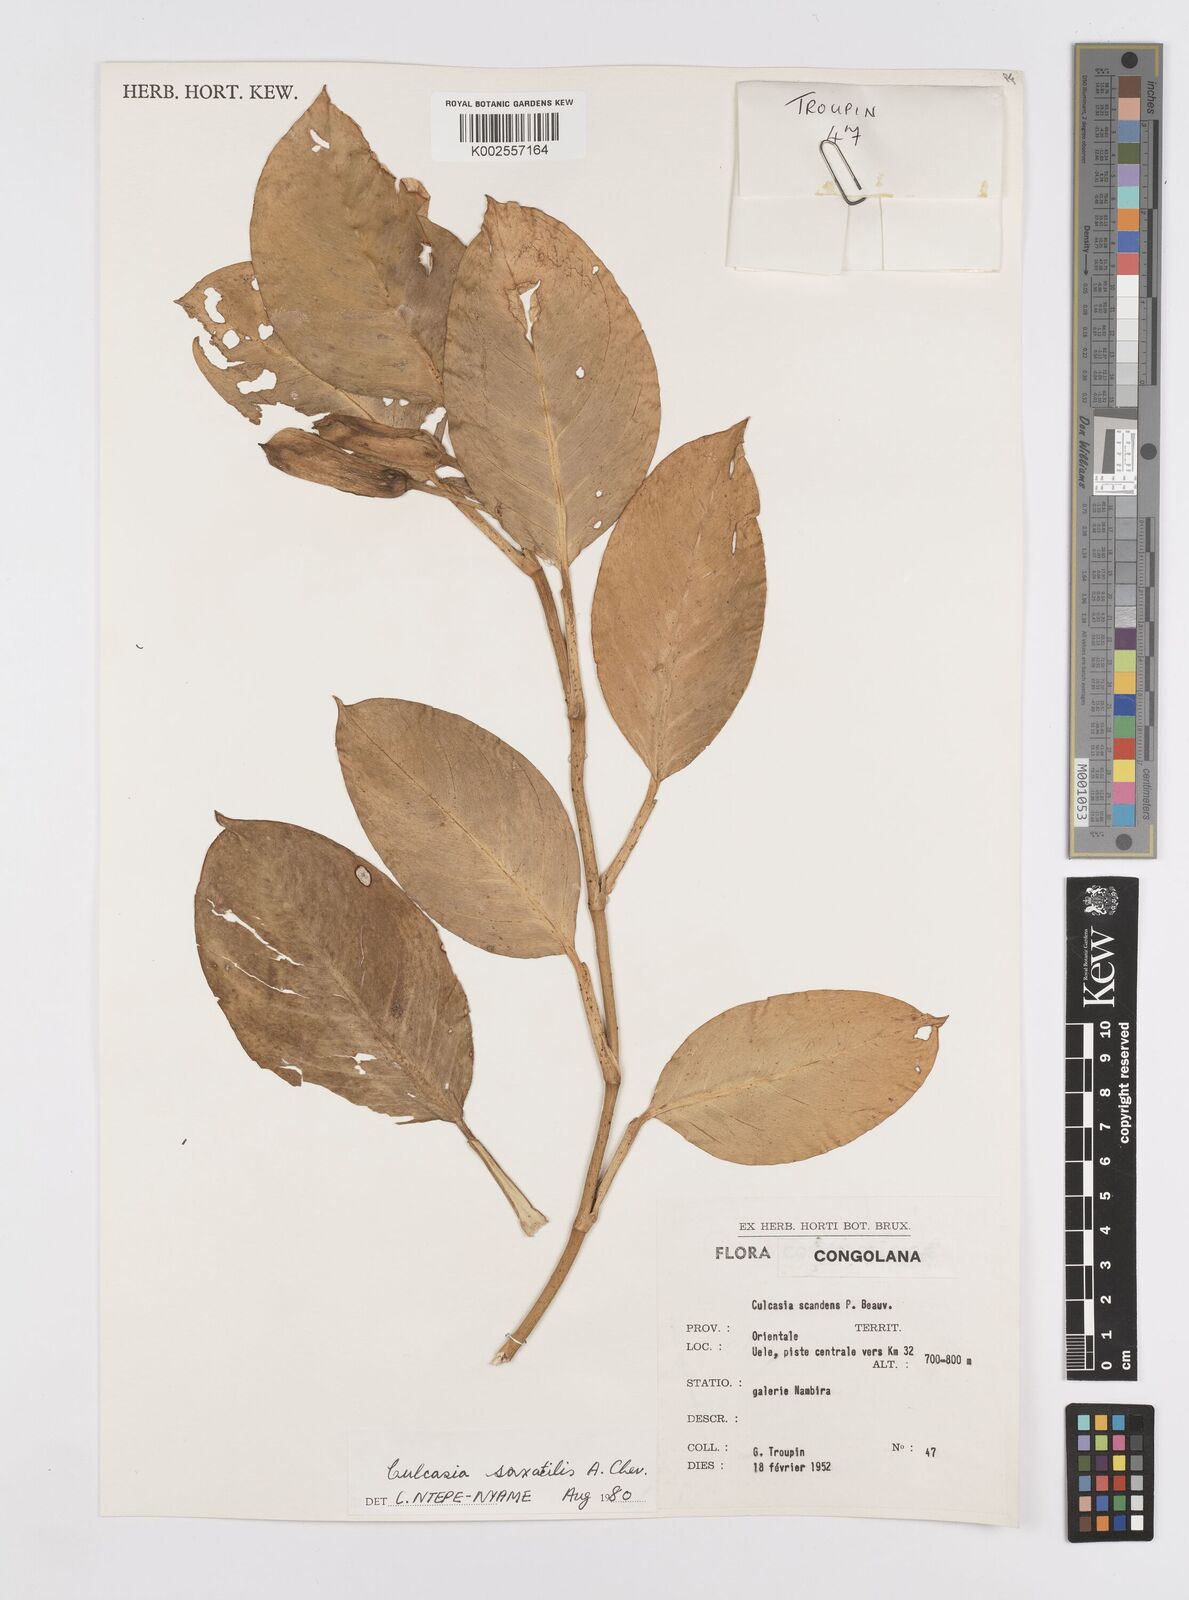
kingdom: Plantae
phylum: Tracheophyta
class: Liliopsida
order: Alismatales
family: Araceae
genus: Culcasia
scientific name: Culcasia scandens
